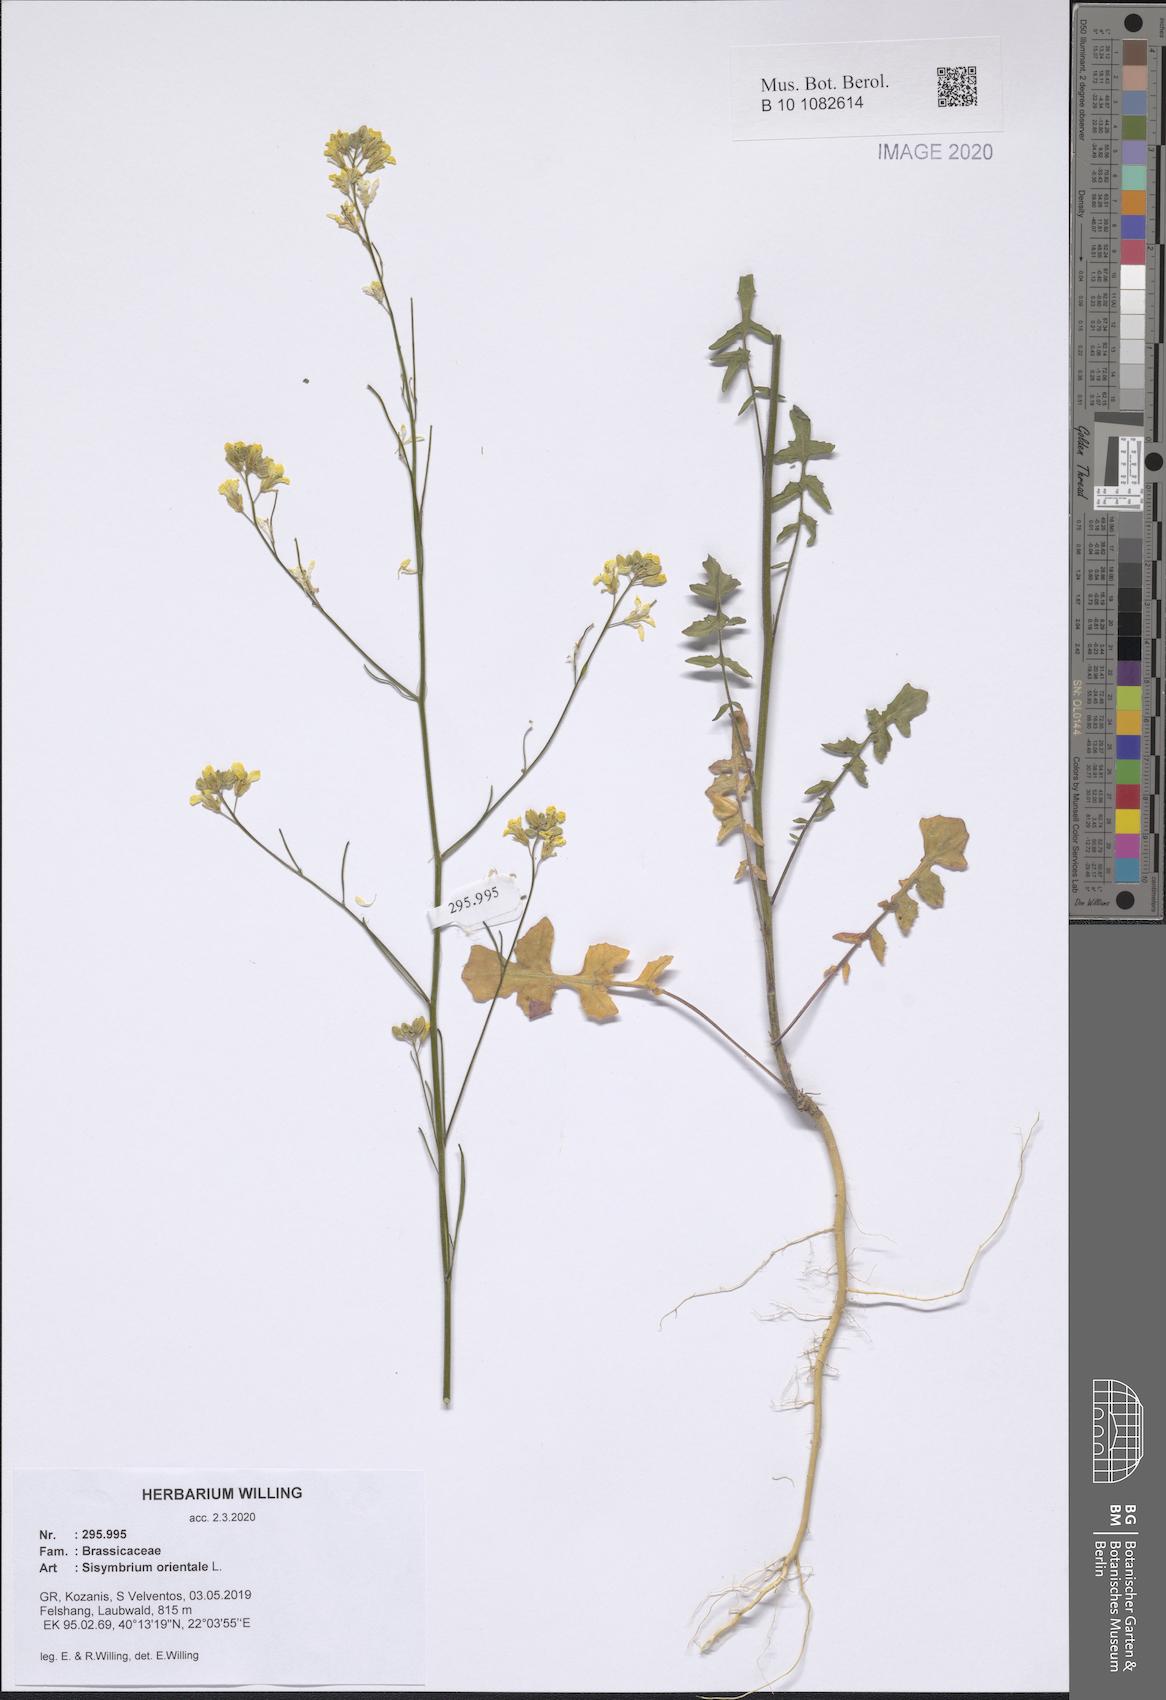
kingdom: Plantae
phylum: Tracheophyta
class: Magnoliopsida
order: Brassicales
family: Brassicaceae
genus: Sisymbrium
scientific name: Sisymbrium orientale
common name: Eastern rocket
